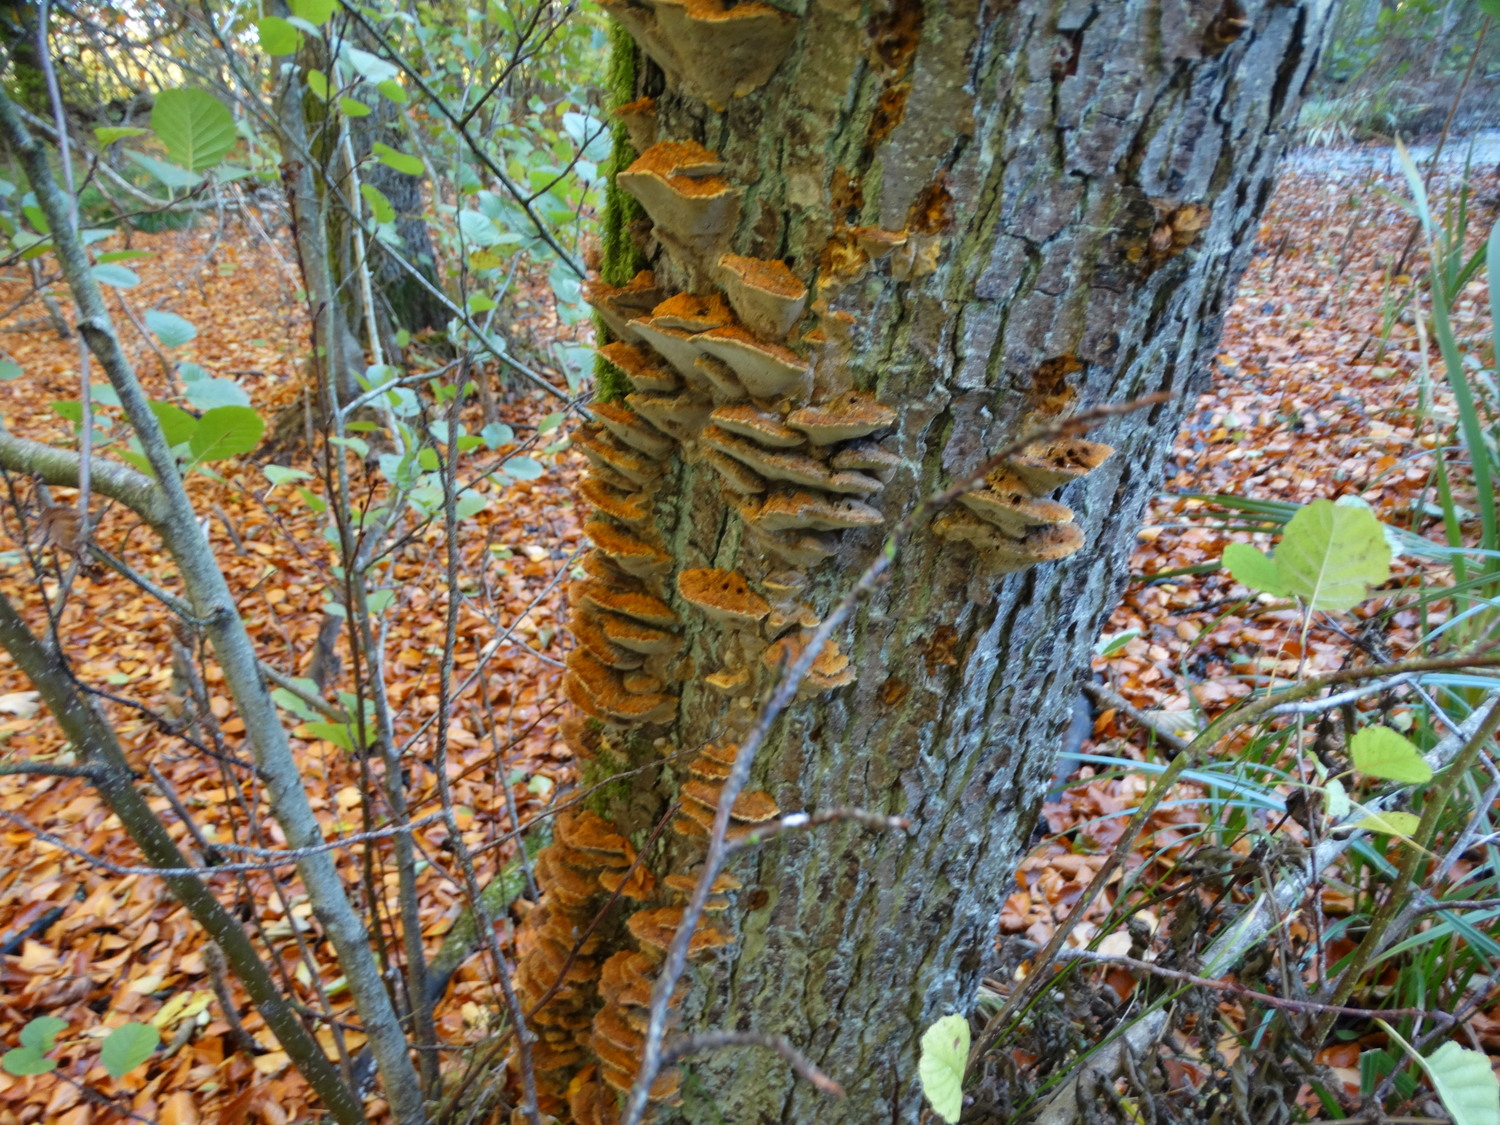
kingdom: Fungi
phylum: Basidiomycota
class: Agaricomycetes
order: Hymenochaetales
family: Hymenochaetaceae
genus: Xanthoporia
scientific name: Xanthoporia radiata
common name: elle-spejlporesvamp
